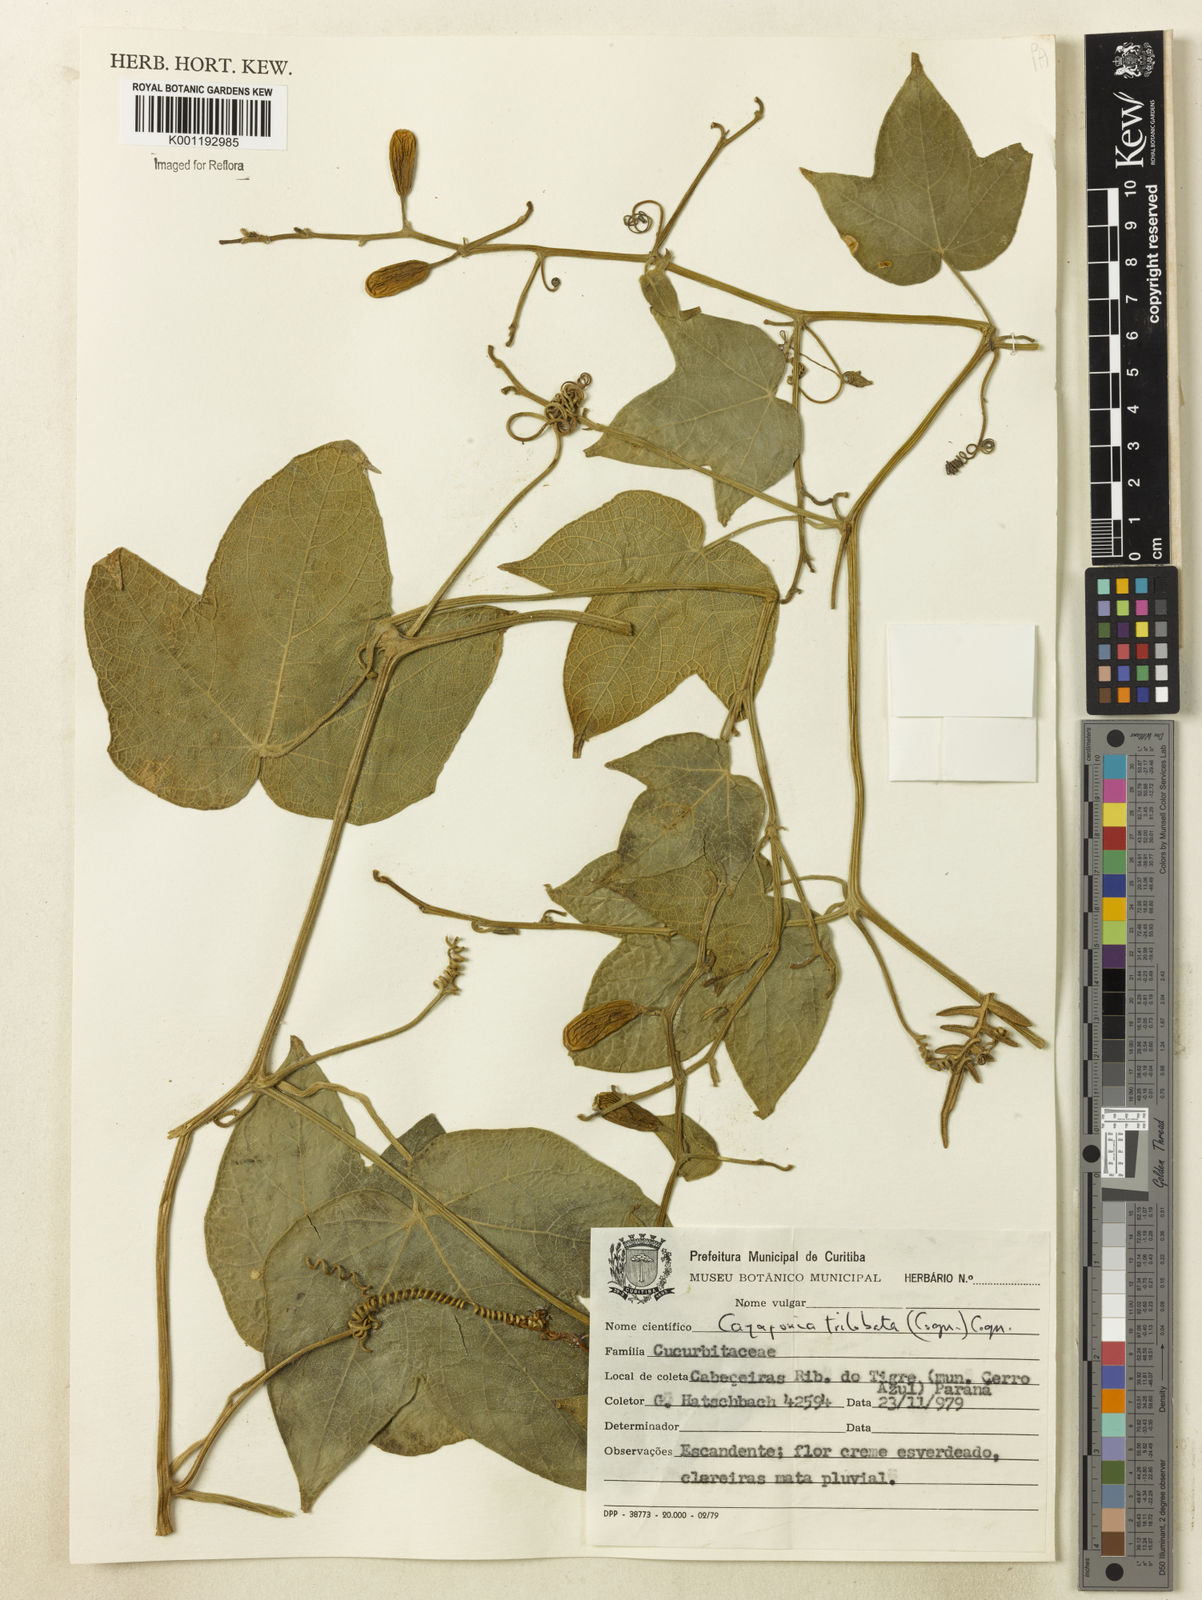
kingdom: Plantae
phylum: Tracheophyta
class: Magnoliopsida
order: Cucurbitales
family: Cucurbitaceae
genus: Cayaponia
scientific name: Cayaponia trilobata
